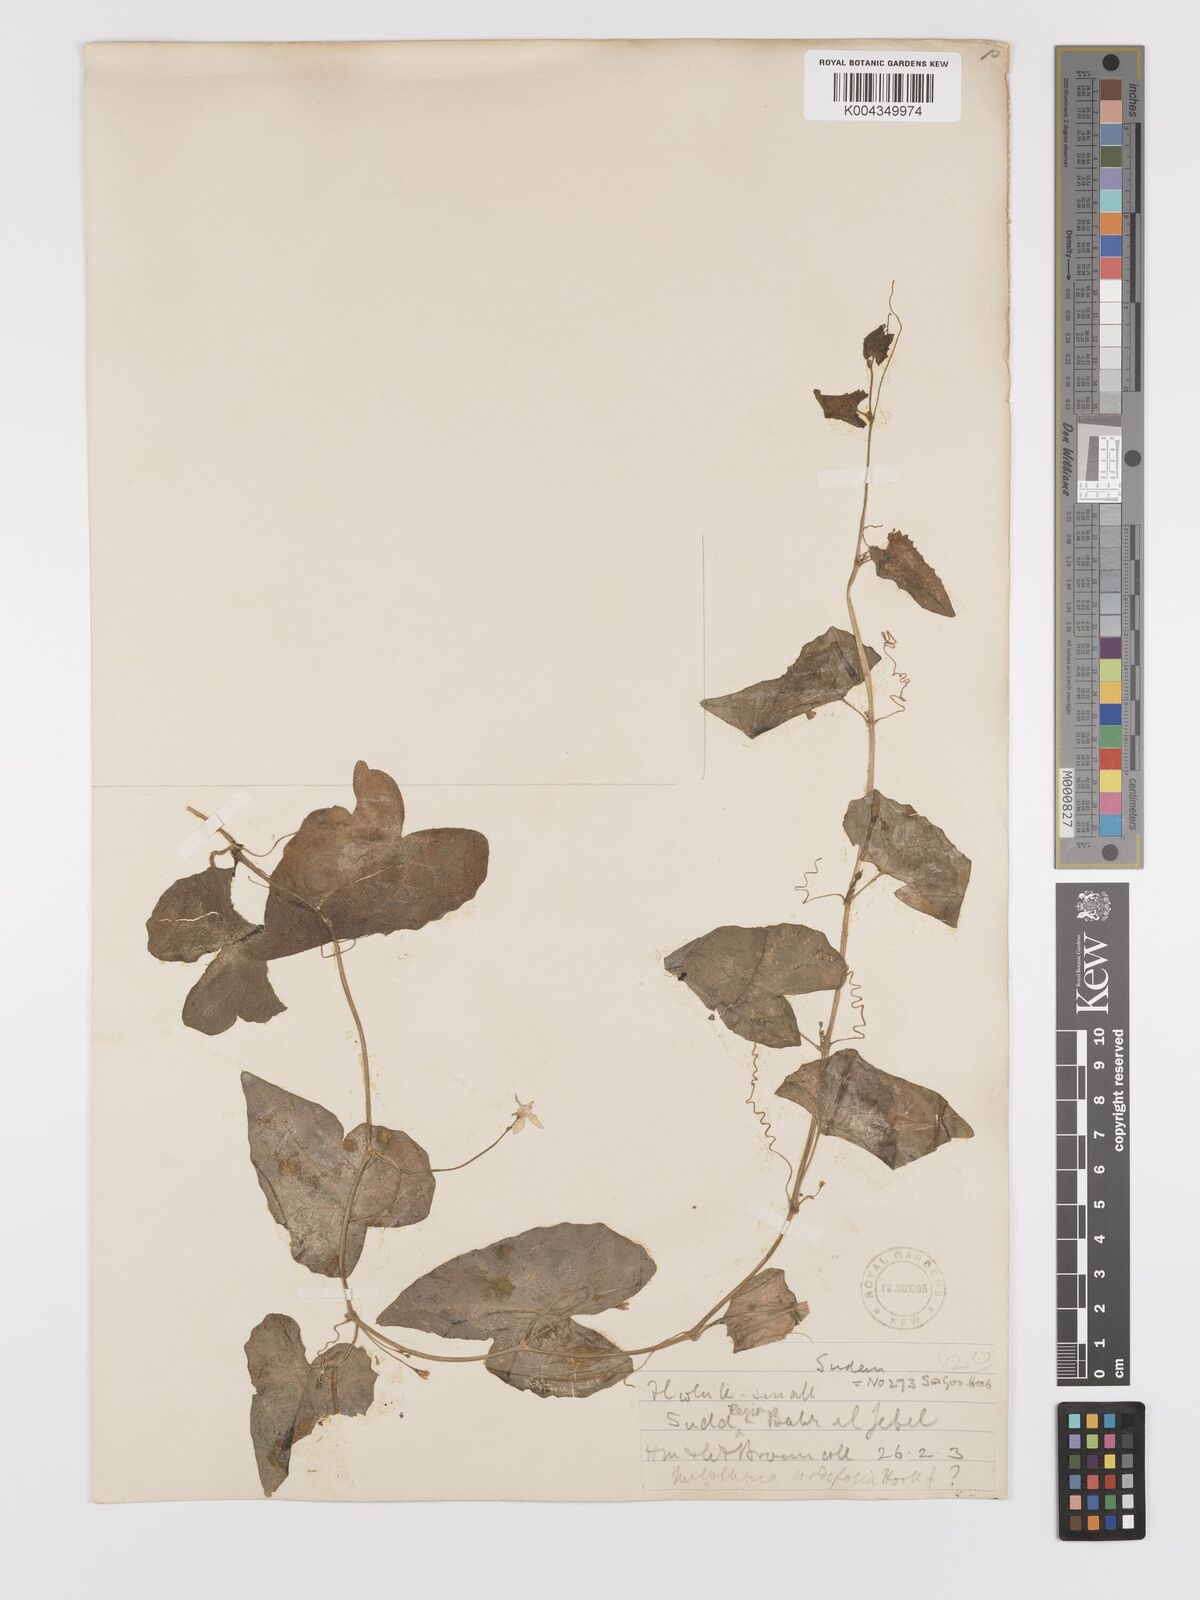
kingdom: Plantae
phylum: Tracheophyta
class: Magnoliopsida
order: Cucurbitales
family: Cucurbitaceae
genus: Zehneria
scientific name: Zehneria peneyana
